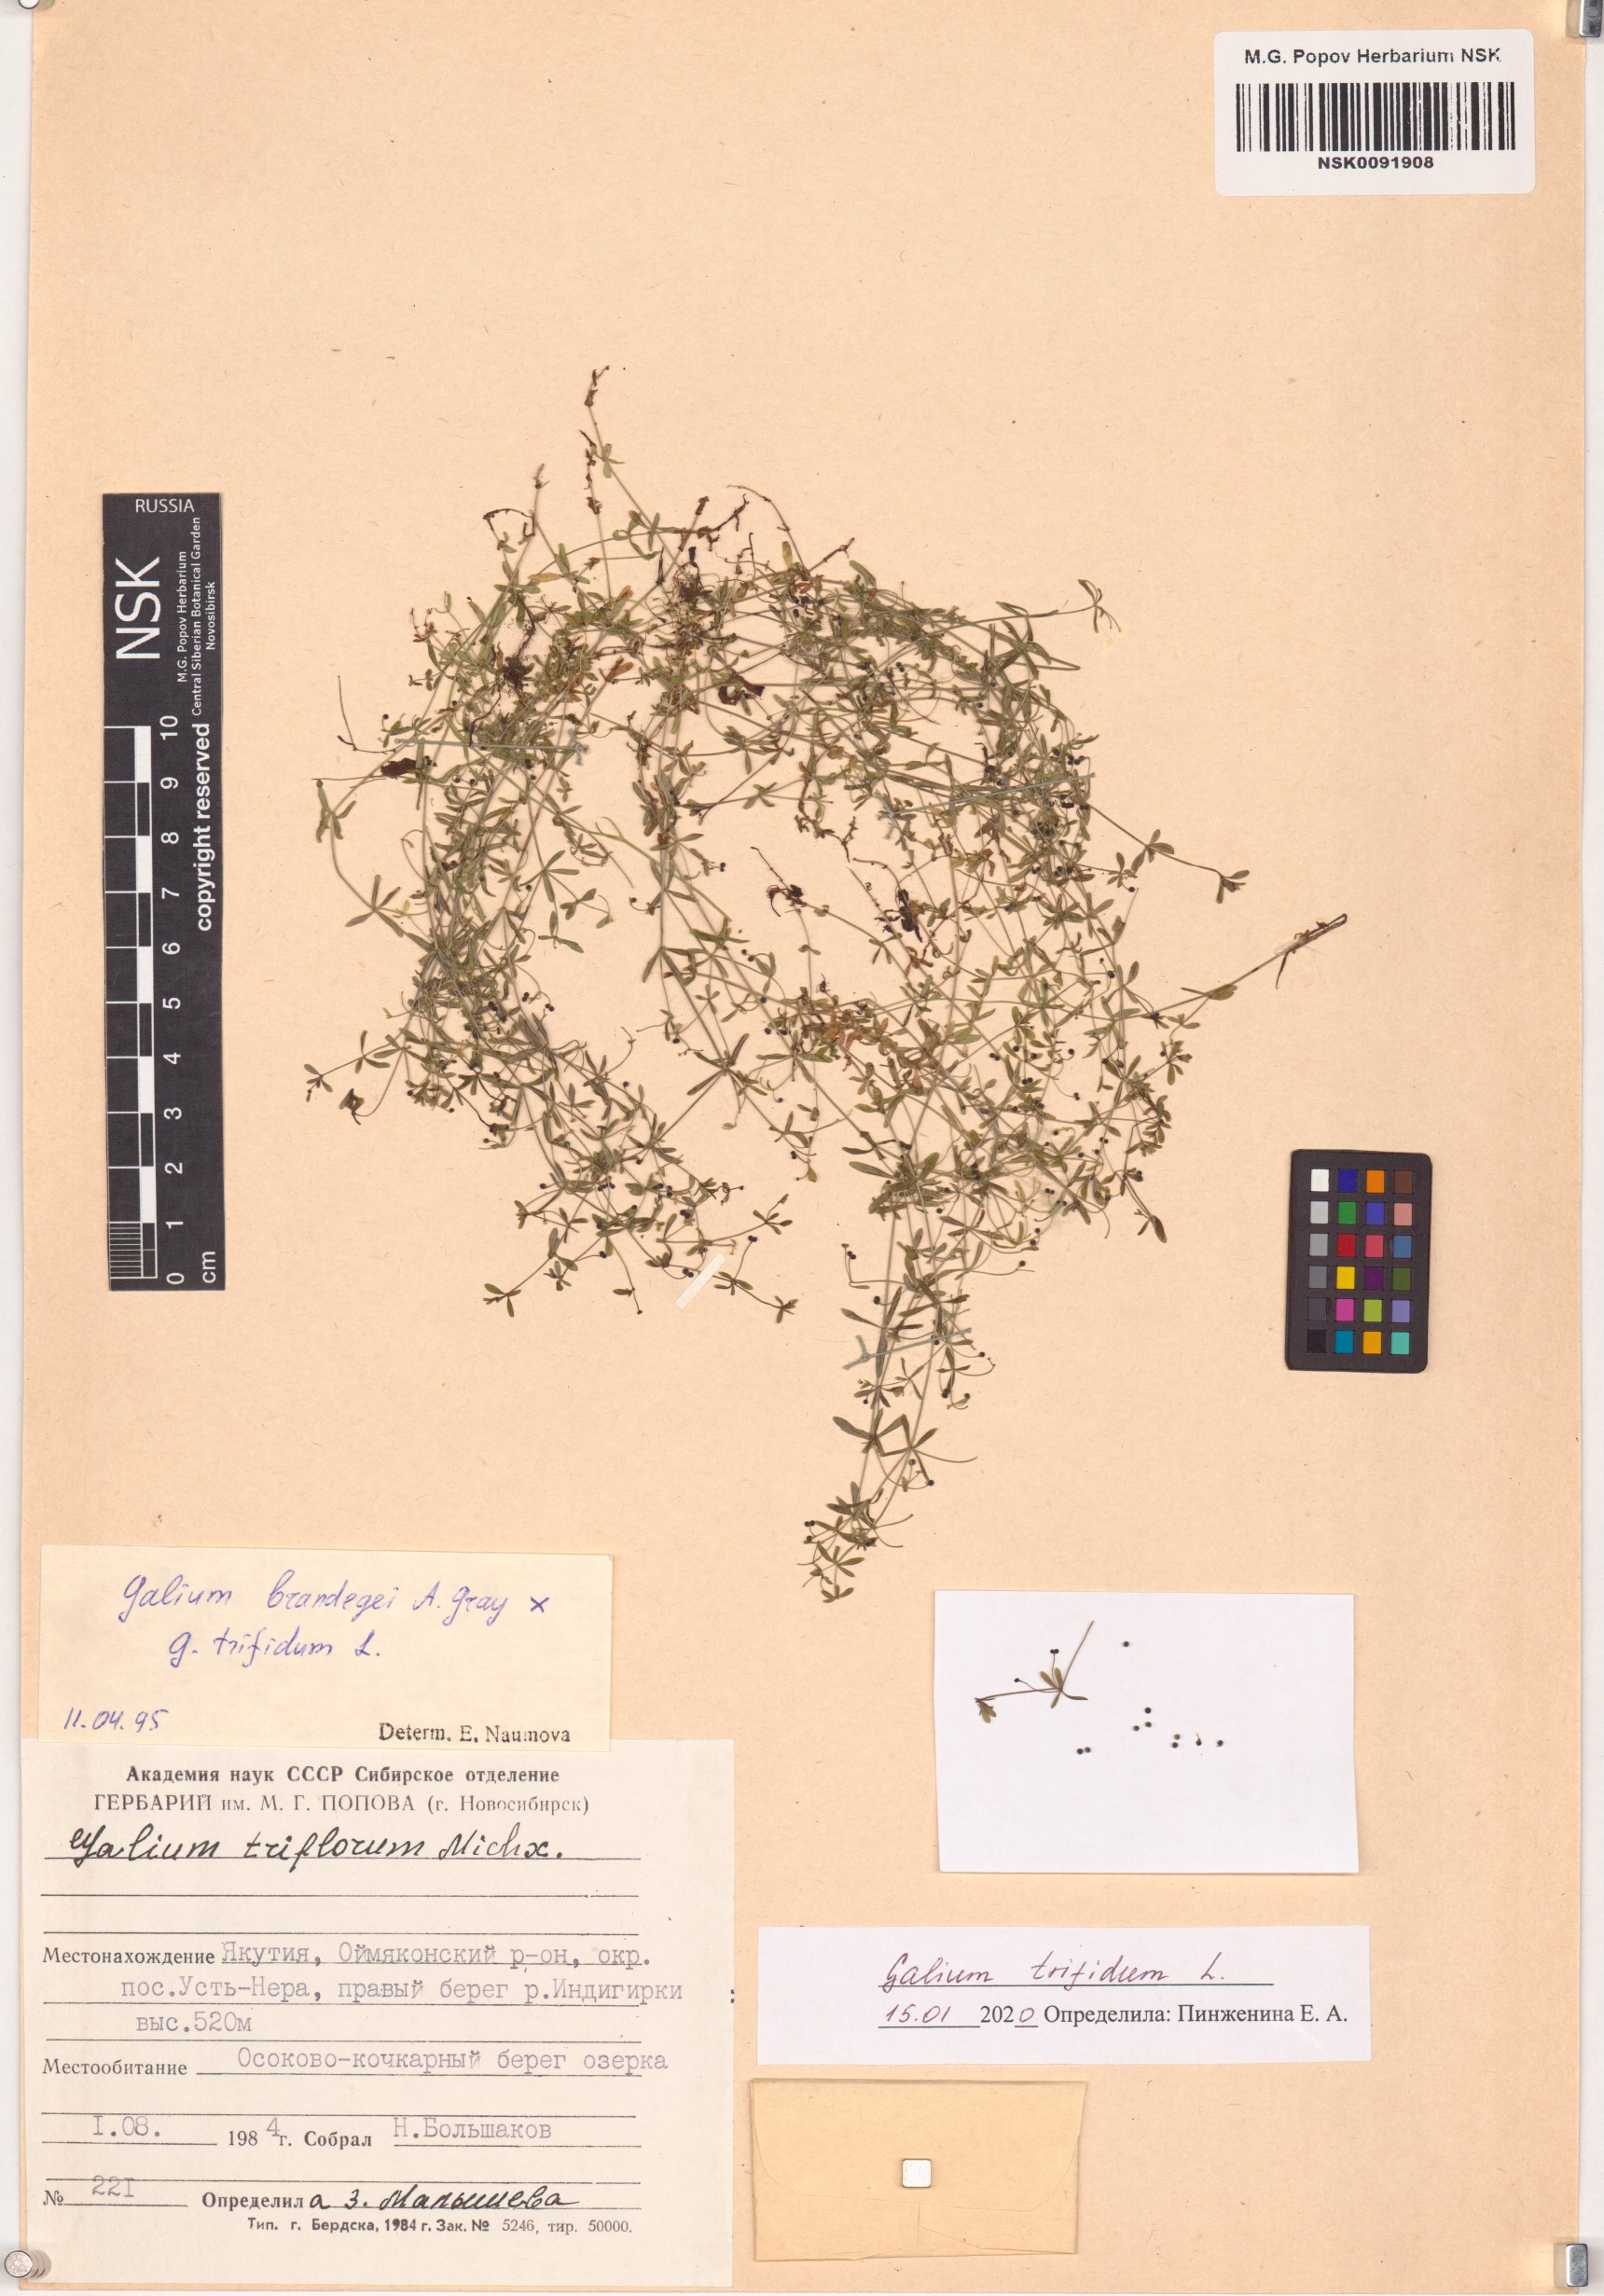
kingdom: Plantae
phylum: Tracheophyta
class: Magnoliopsida
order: Gentianales
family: Rubiaceae
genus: Galium
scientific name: Galium trifidum
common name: Small bedstraw
